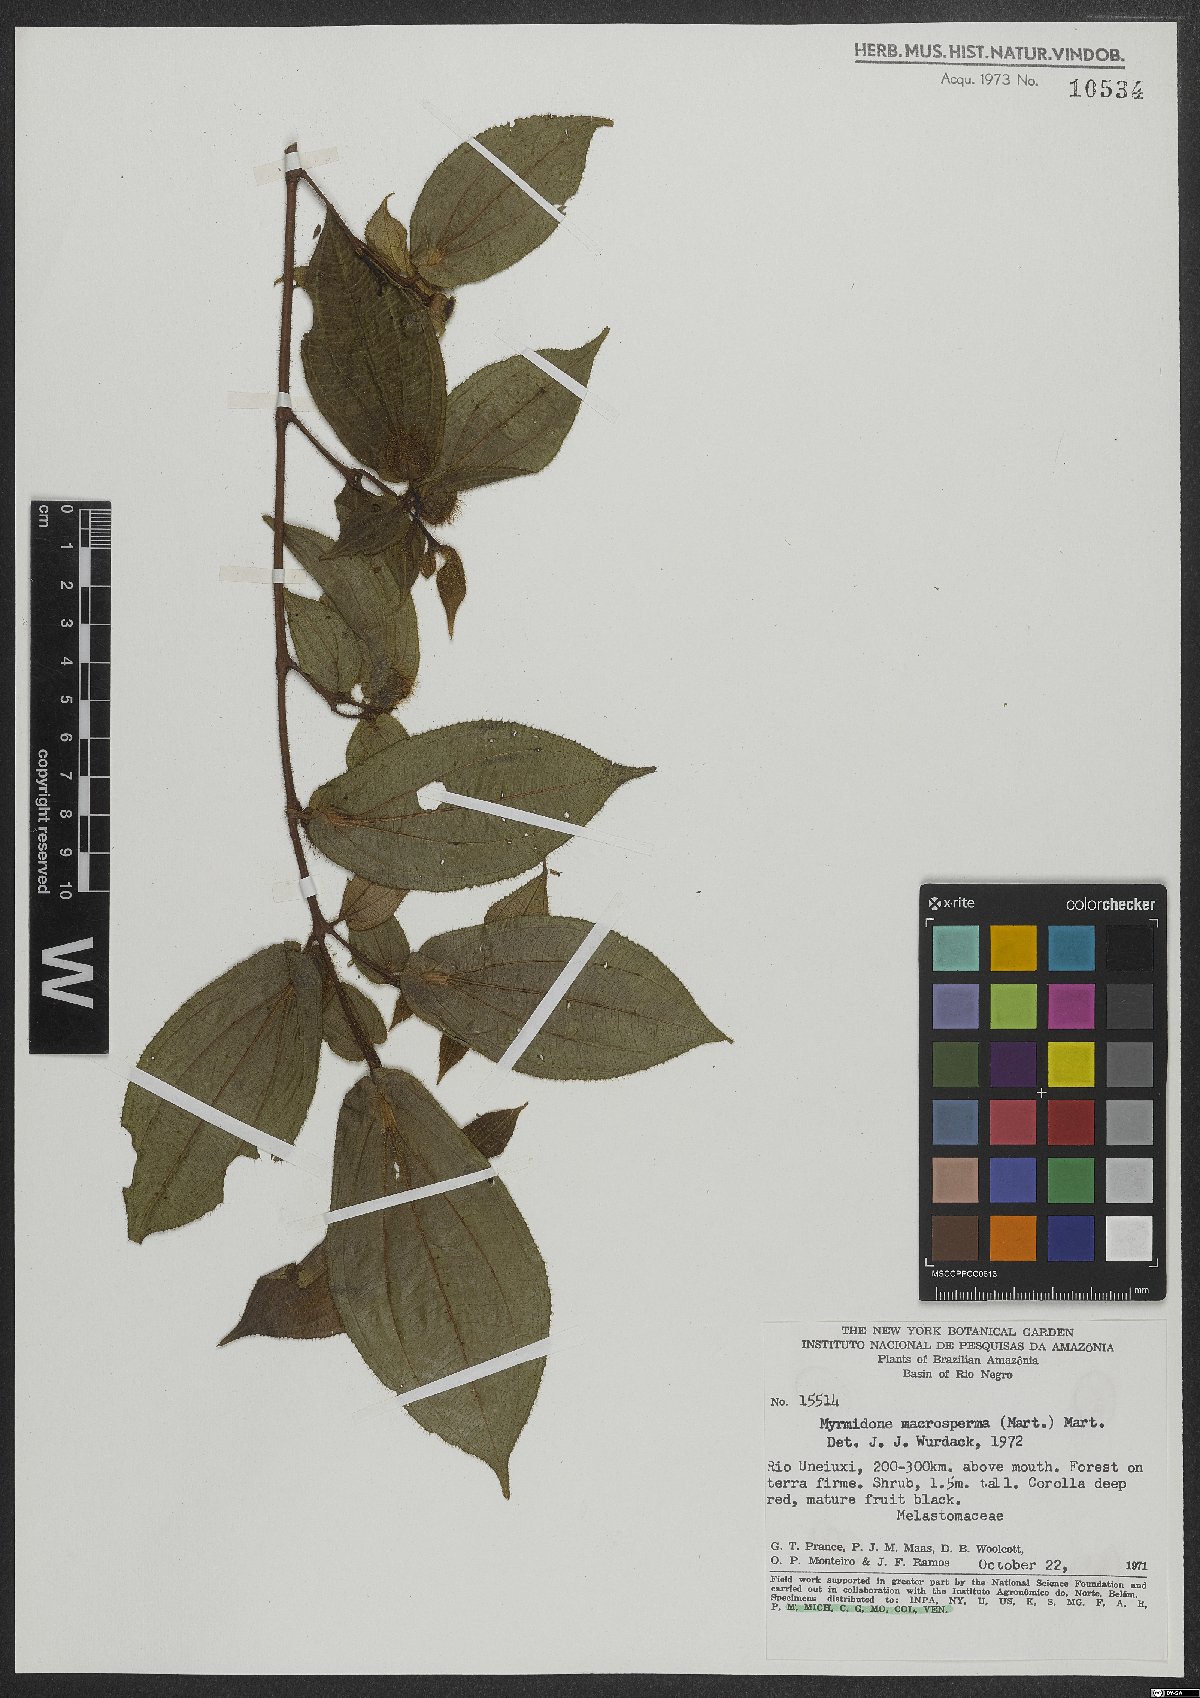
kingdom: Plantae
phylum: Tracheophyta
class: Magnoliopsida
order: Myrtales
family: Melastomataceae
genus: Miconia
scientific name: Miconia macrosperma
